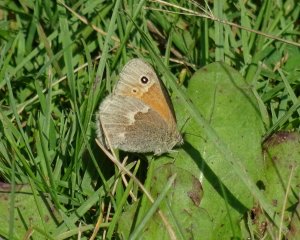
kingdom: Animalia
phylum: Arthropoda
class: Insecta
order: Lepidoptera
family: Nymphalidae
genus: Coenonympha
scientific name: Coenonympha tullia
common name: Large Heath
